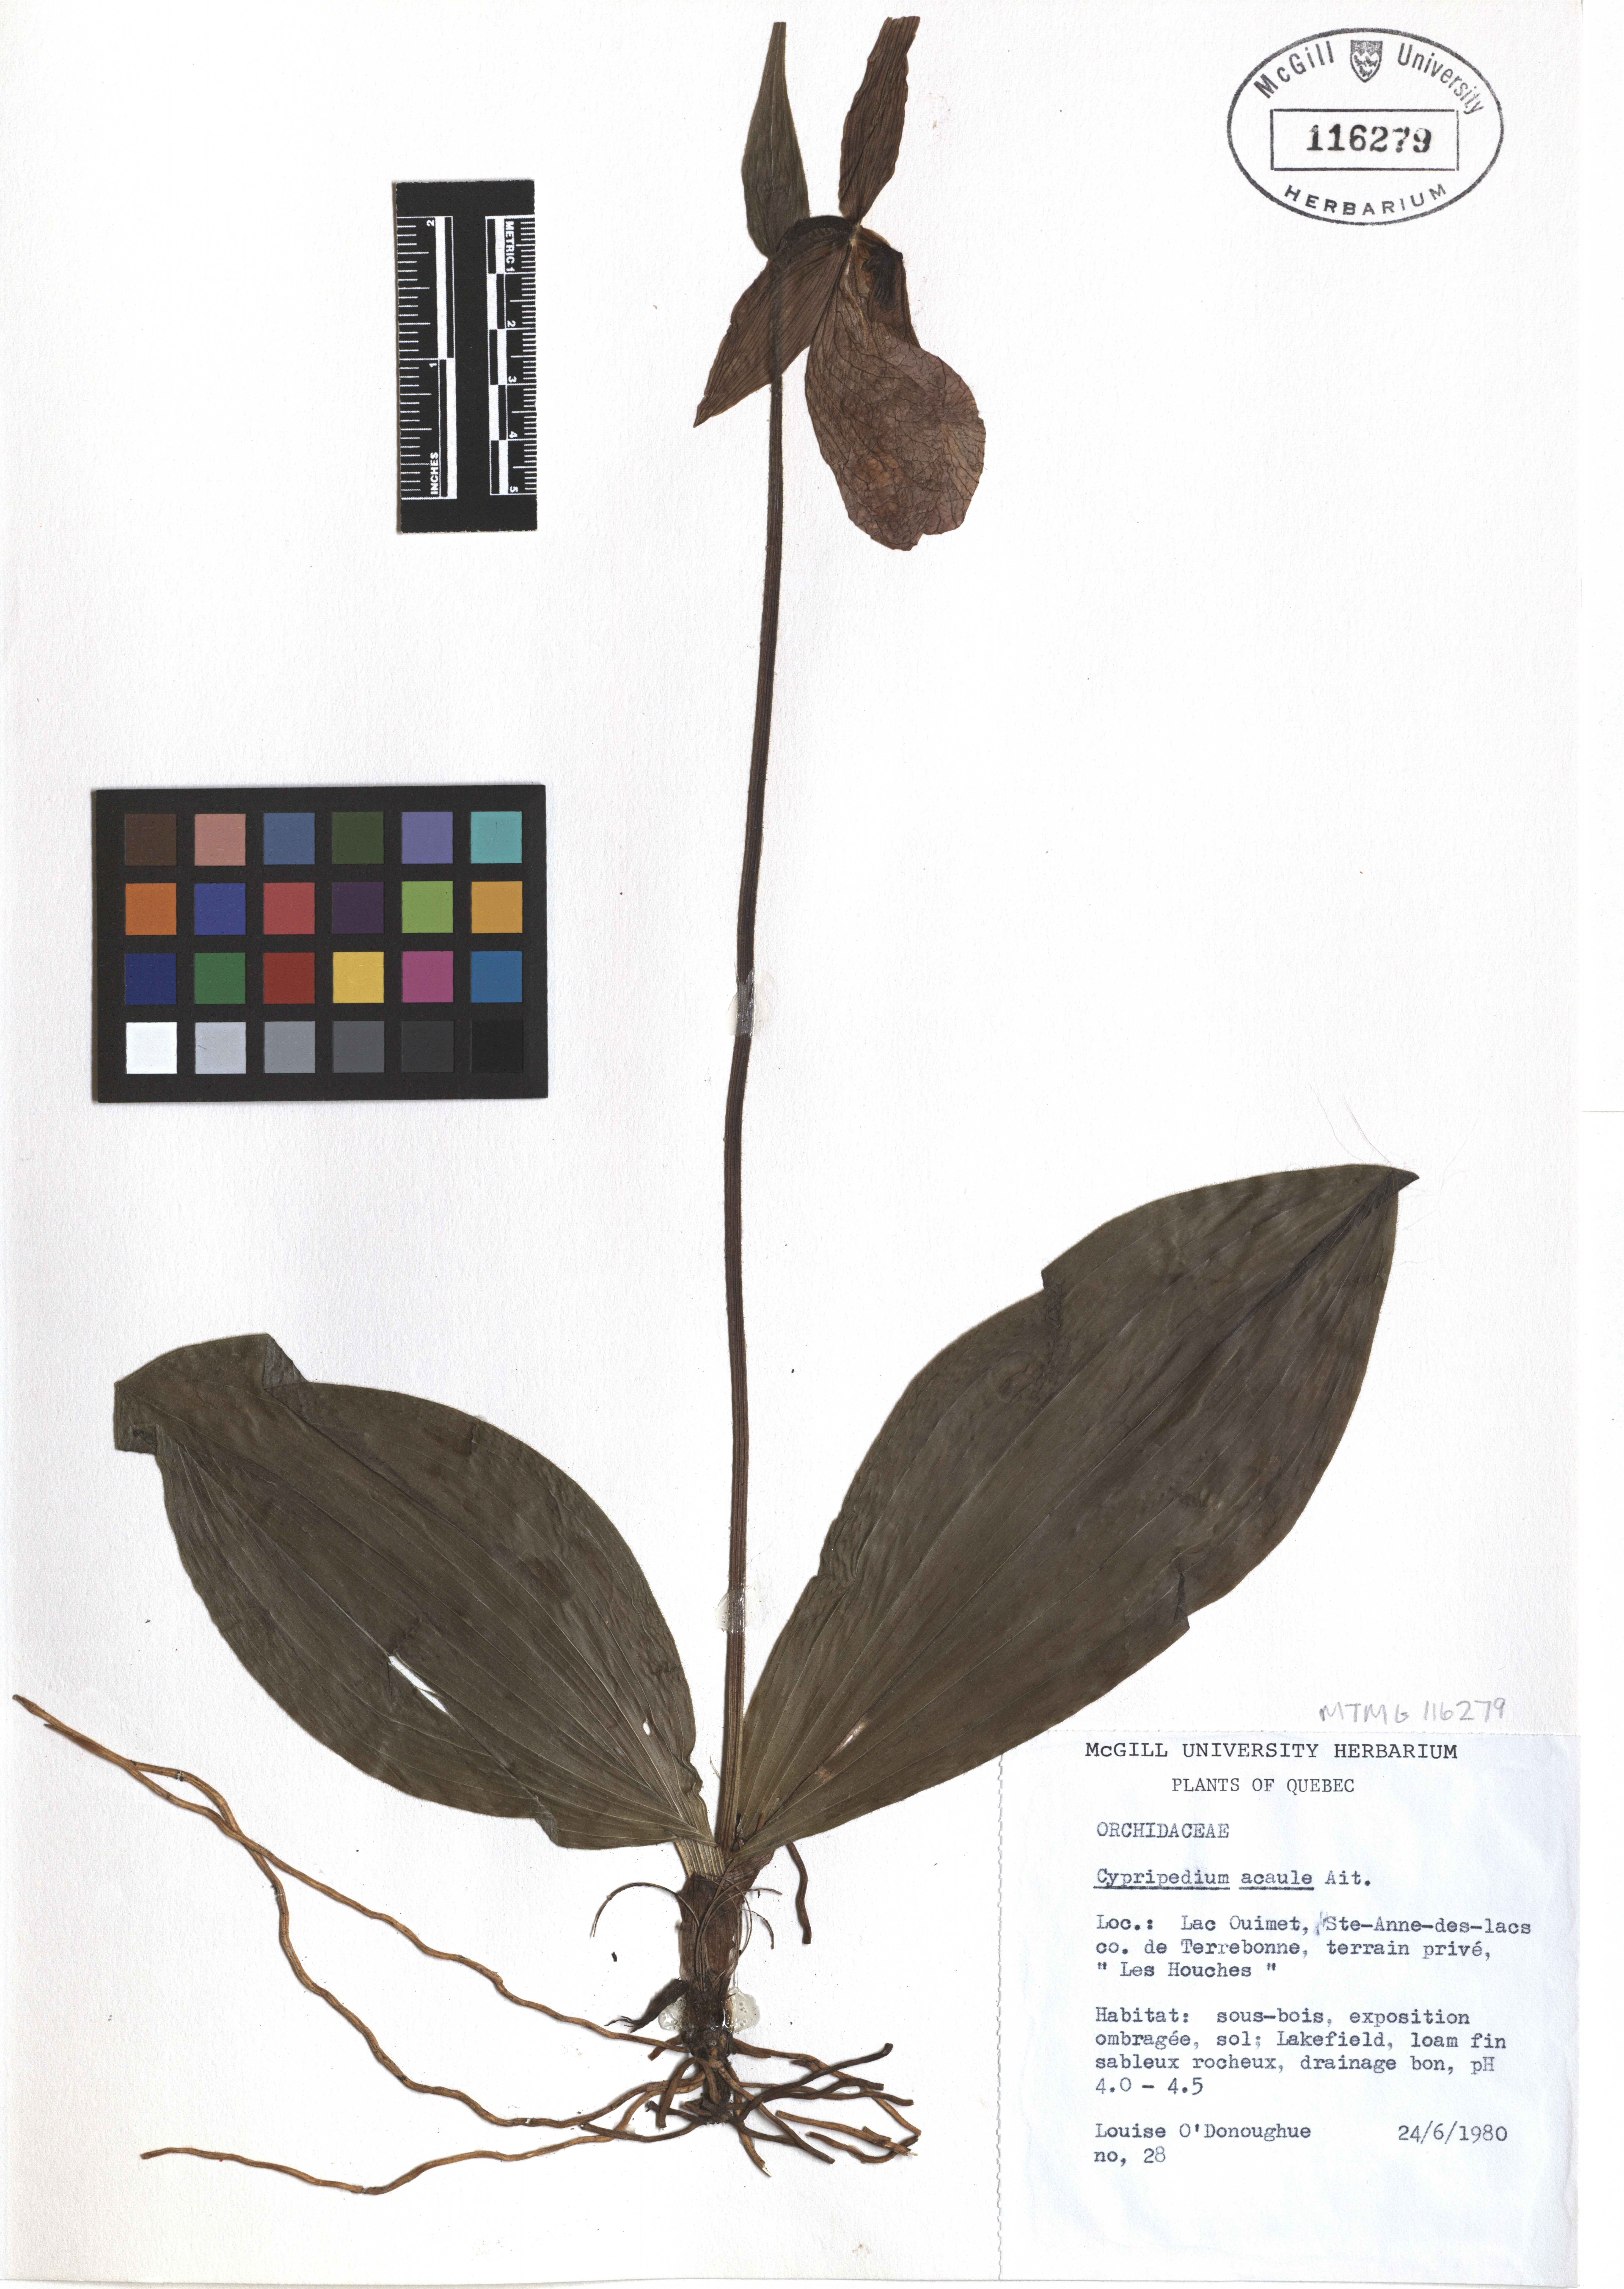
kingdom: Plantae
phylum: Tracheophyta
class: Liliopsida
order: Asparagales
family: Orchidaceae
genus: Cypripedium
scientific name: Cypripedium acaule
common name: Pink lady's-slipper
